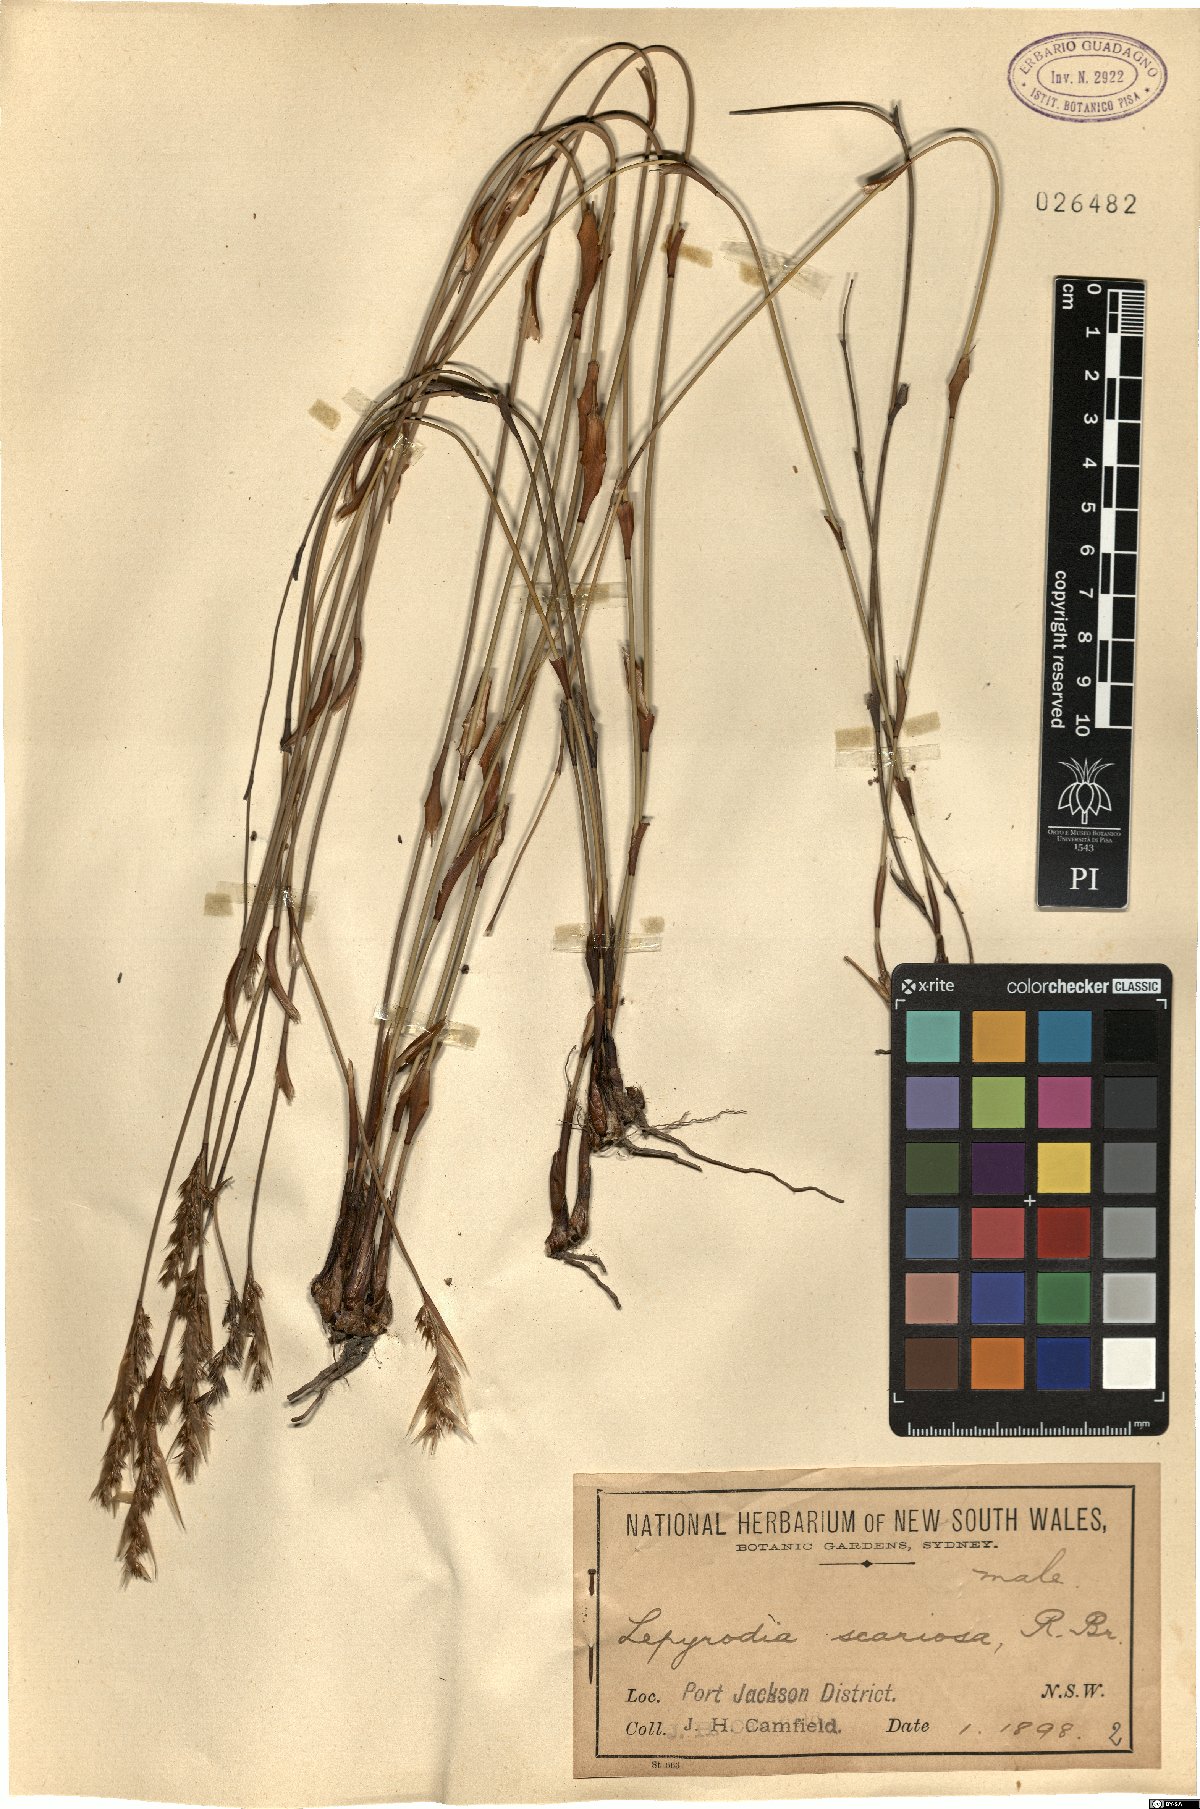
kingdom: Plantae
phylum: Tracheophyta
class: Liliopsida
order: Poales
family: Restionaceae
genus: Lepyrodia
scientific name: Lepyrodia scariosa
